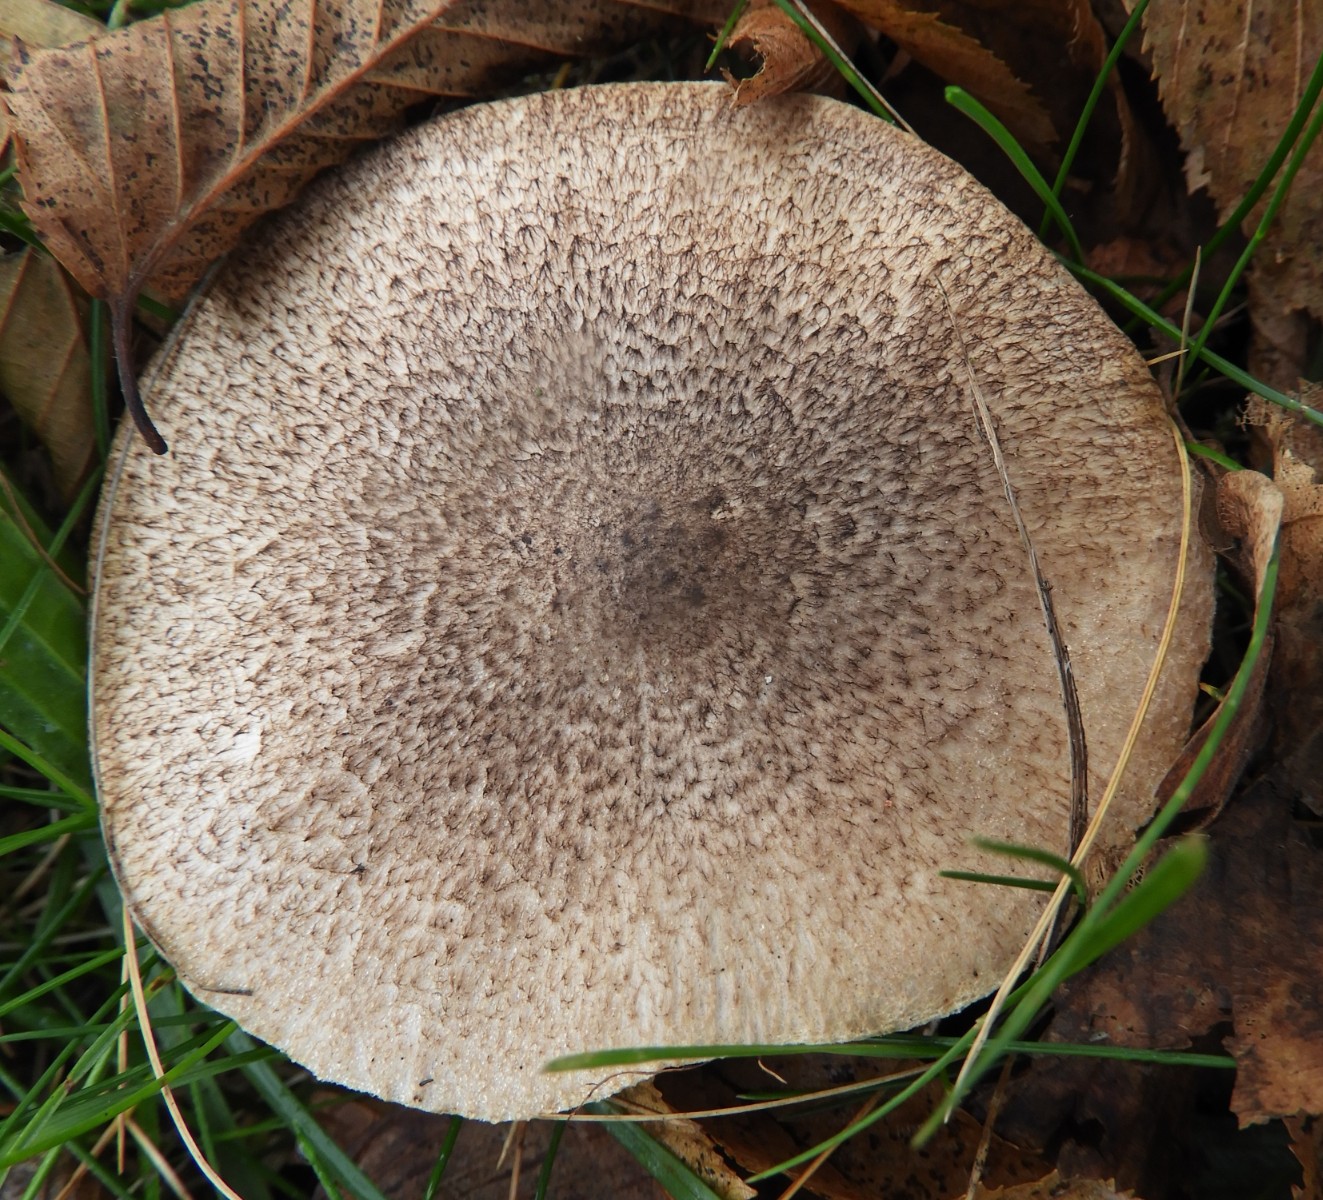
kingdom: Fungi
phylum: Basidiomycota
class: Agaricomycetes
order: Agaricales
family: Tricholomataceae
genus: Tricholoma
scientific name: Tricholoma
